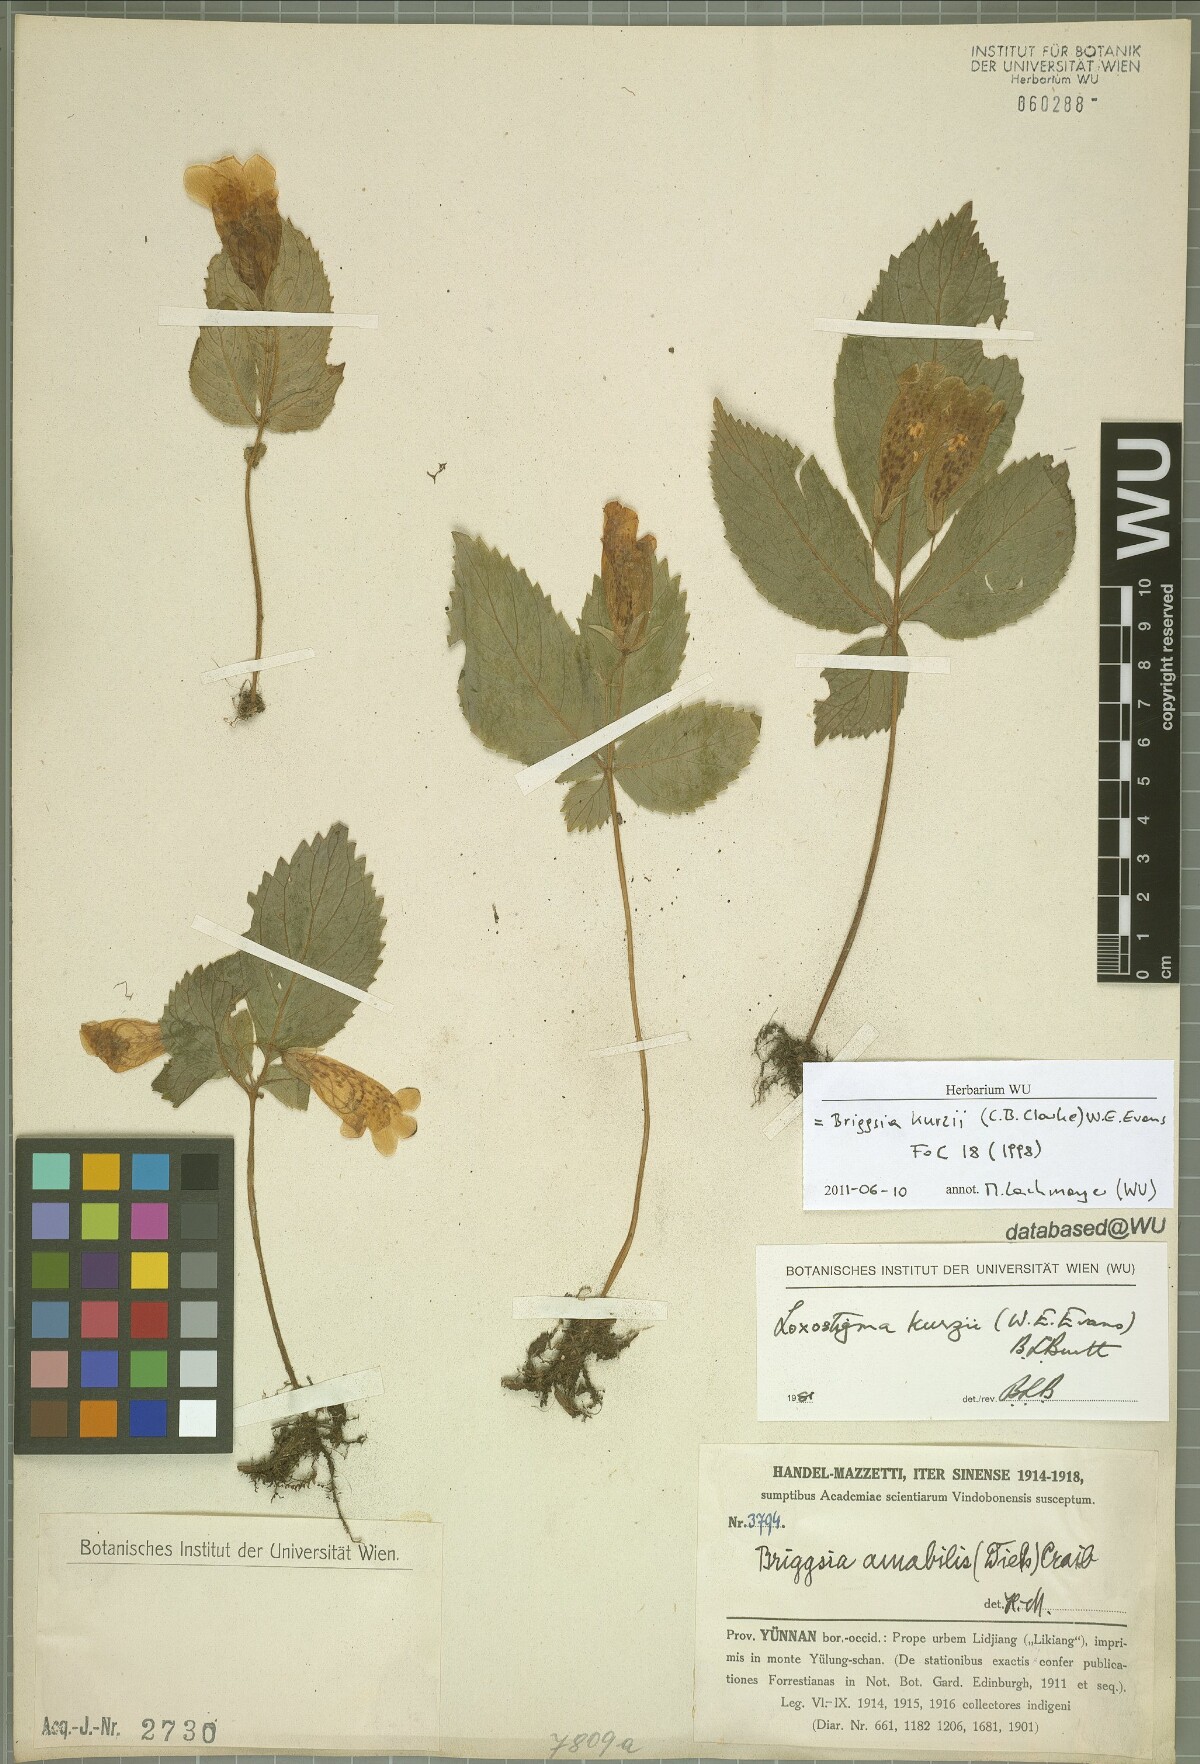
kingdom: Plantae
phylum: Tracheophyta
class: Magnoliopsida
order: Lamiales
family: Gesneriaceae
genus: Loxostigma
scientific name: Loxostigma kurzii
